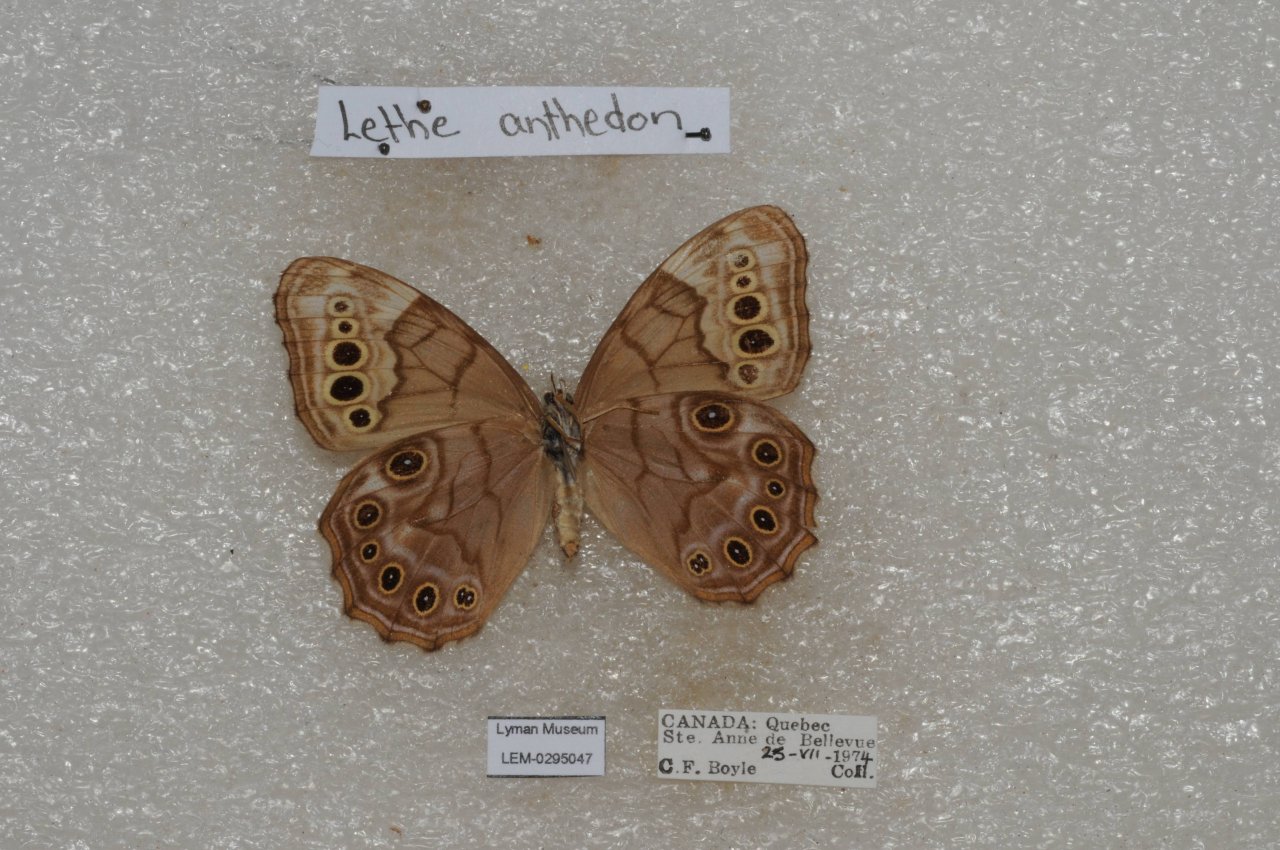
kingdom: Animalia
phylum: Arthropoda
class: Insecta
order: Lepidoptera
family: Nymphalidae
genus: Lethe
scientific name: Lethe anthedon
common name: Northern Pearly-Eye
